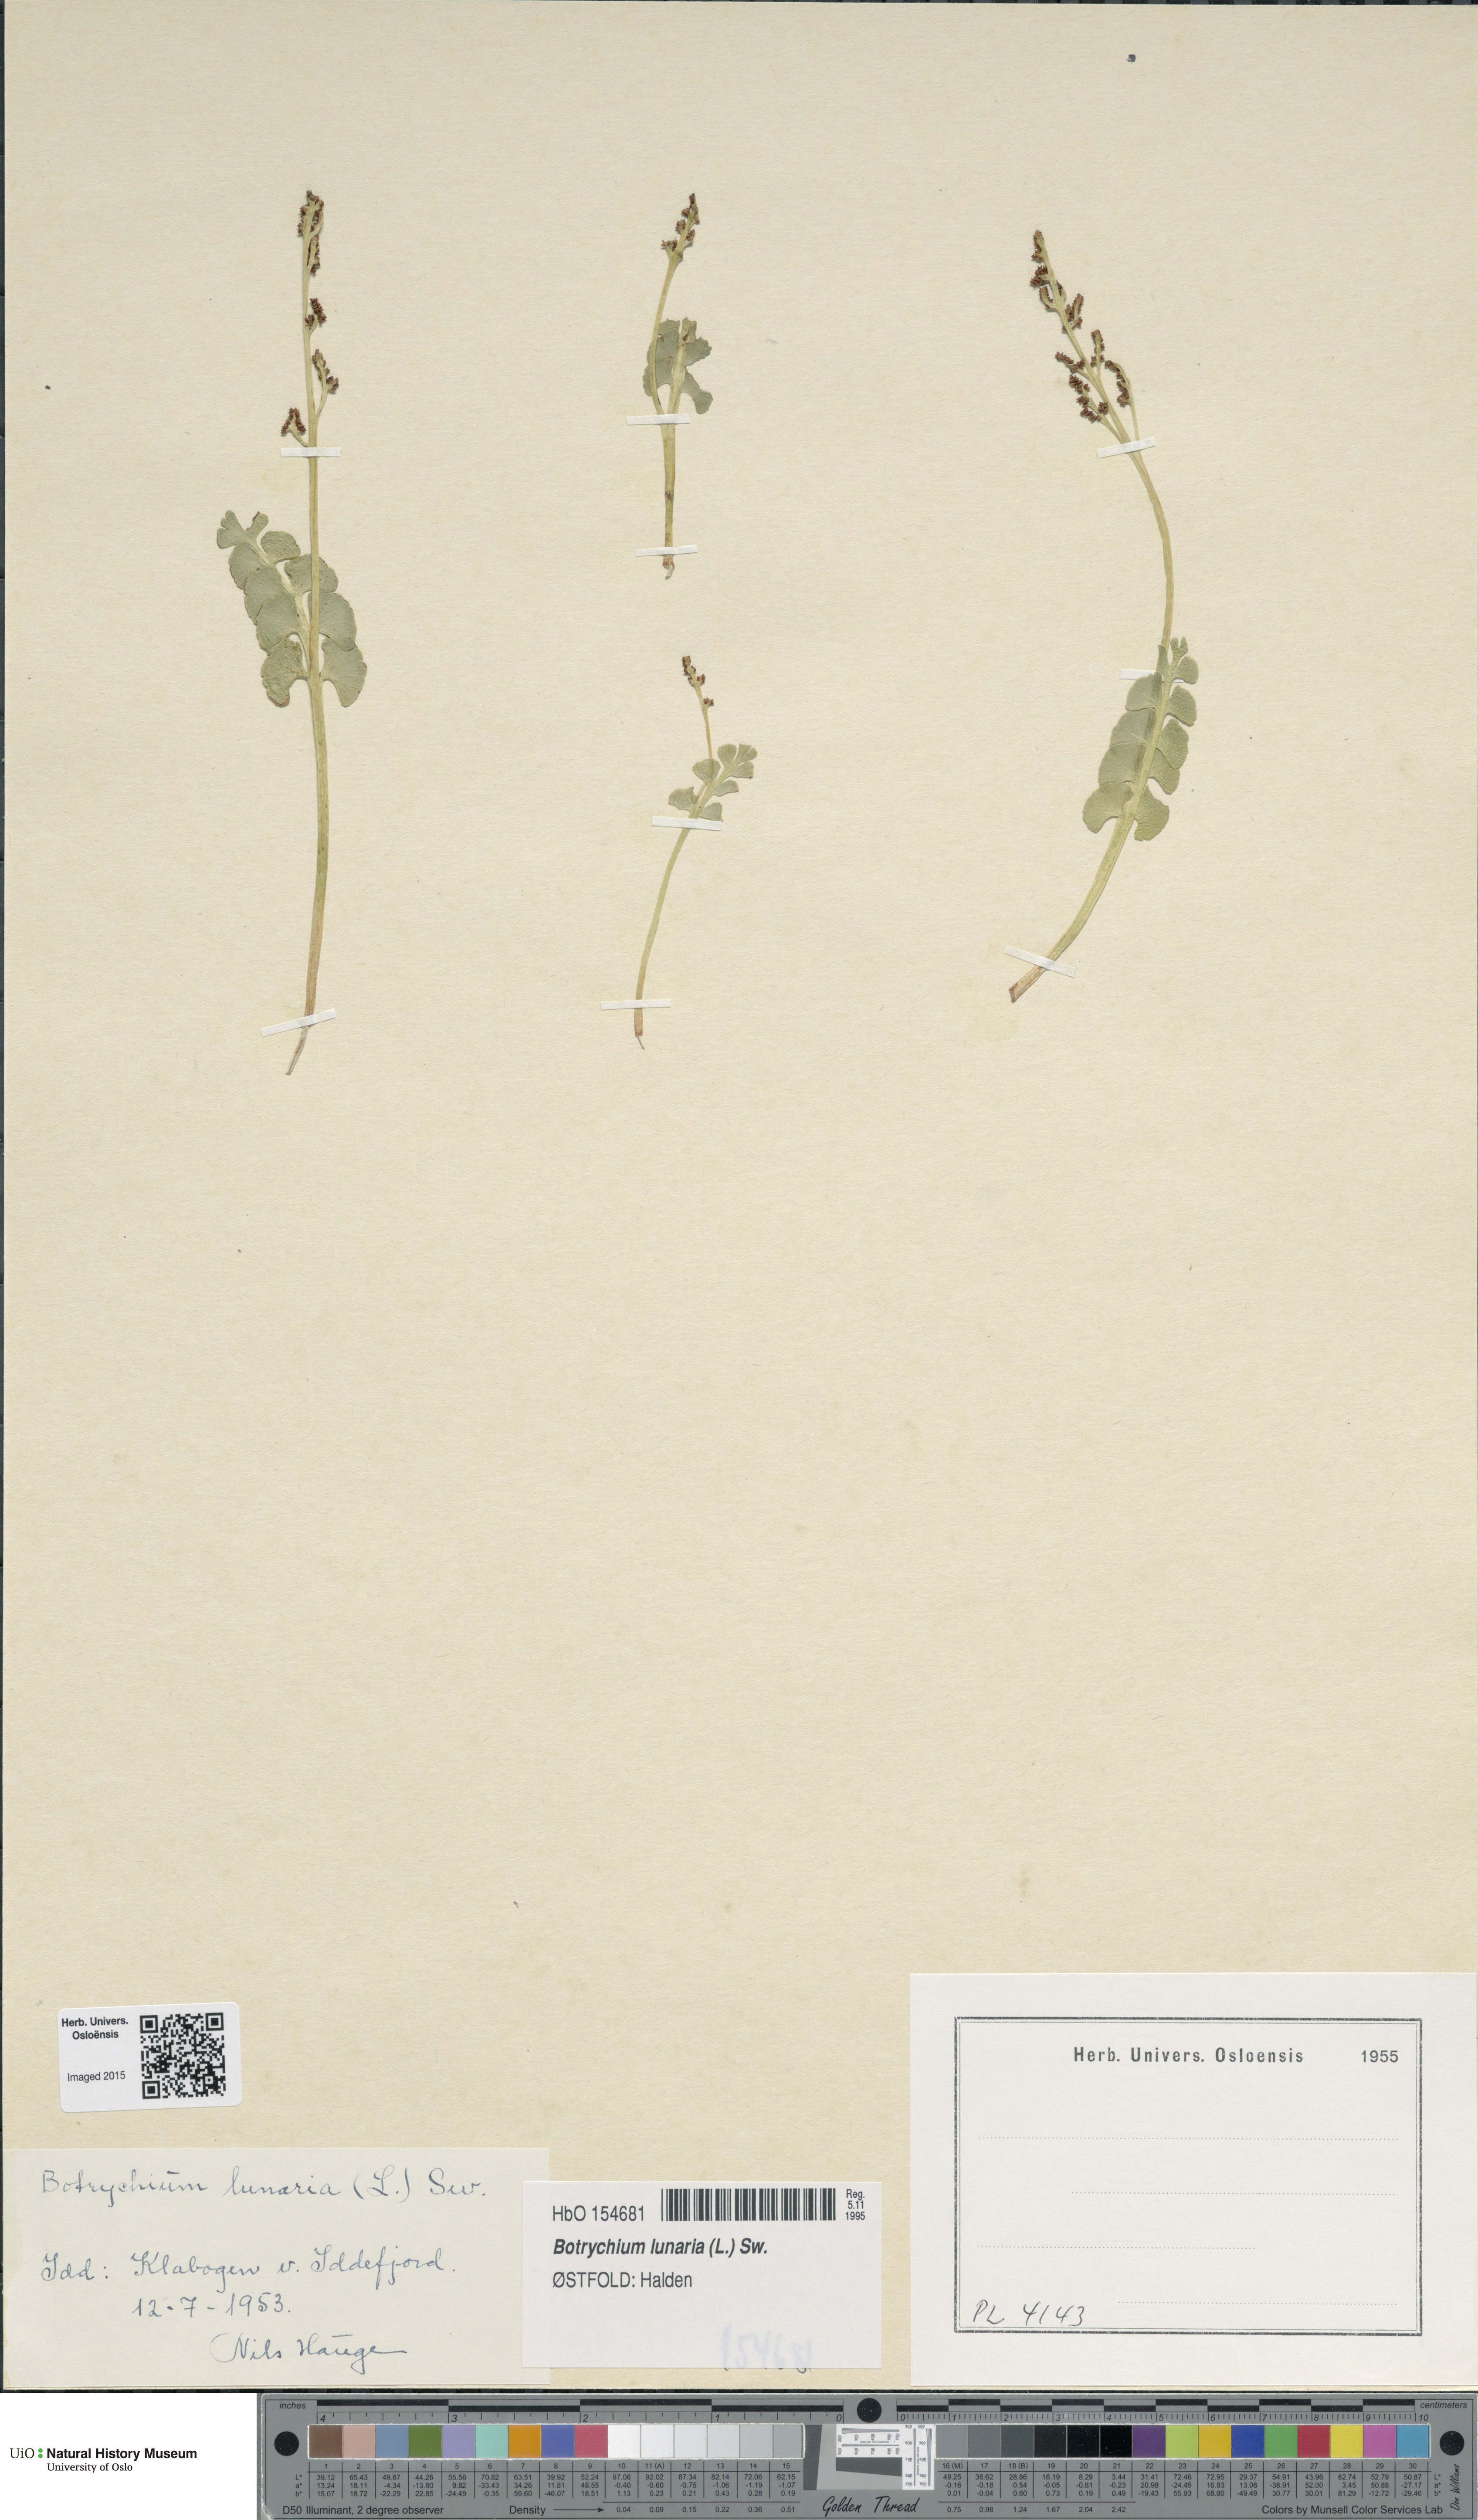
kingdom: Plantae
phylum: Tracheophyta
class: Polypodiopsida
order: Ophioglossales
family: Ophioglossaceae
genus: Botrychium
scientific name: Botrychium lunaria
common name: Moonwort
